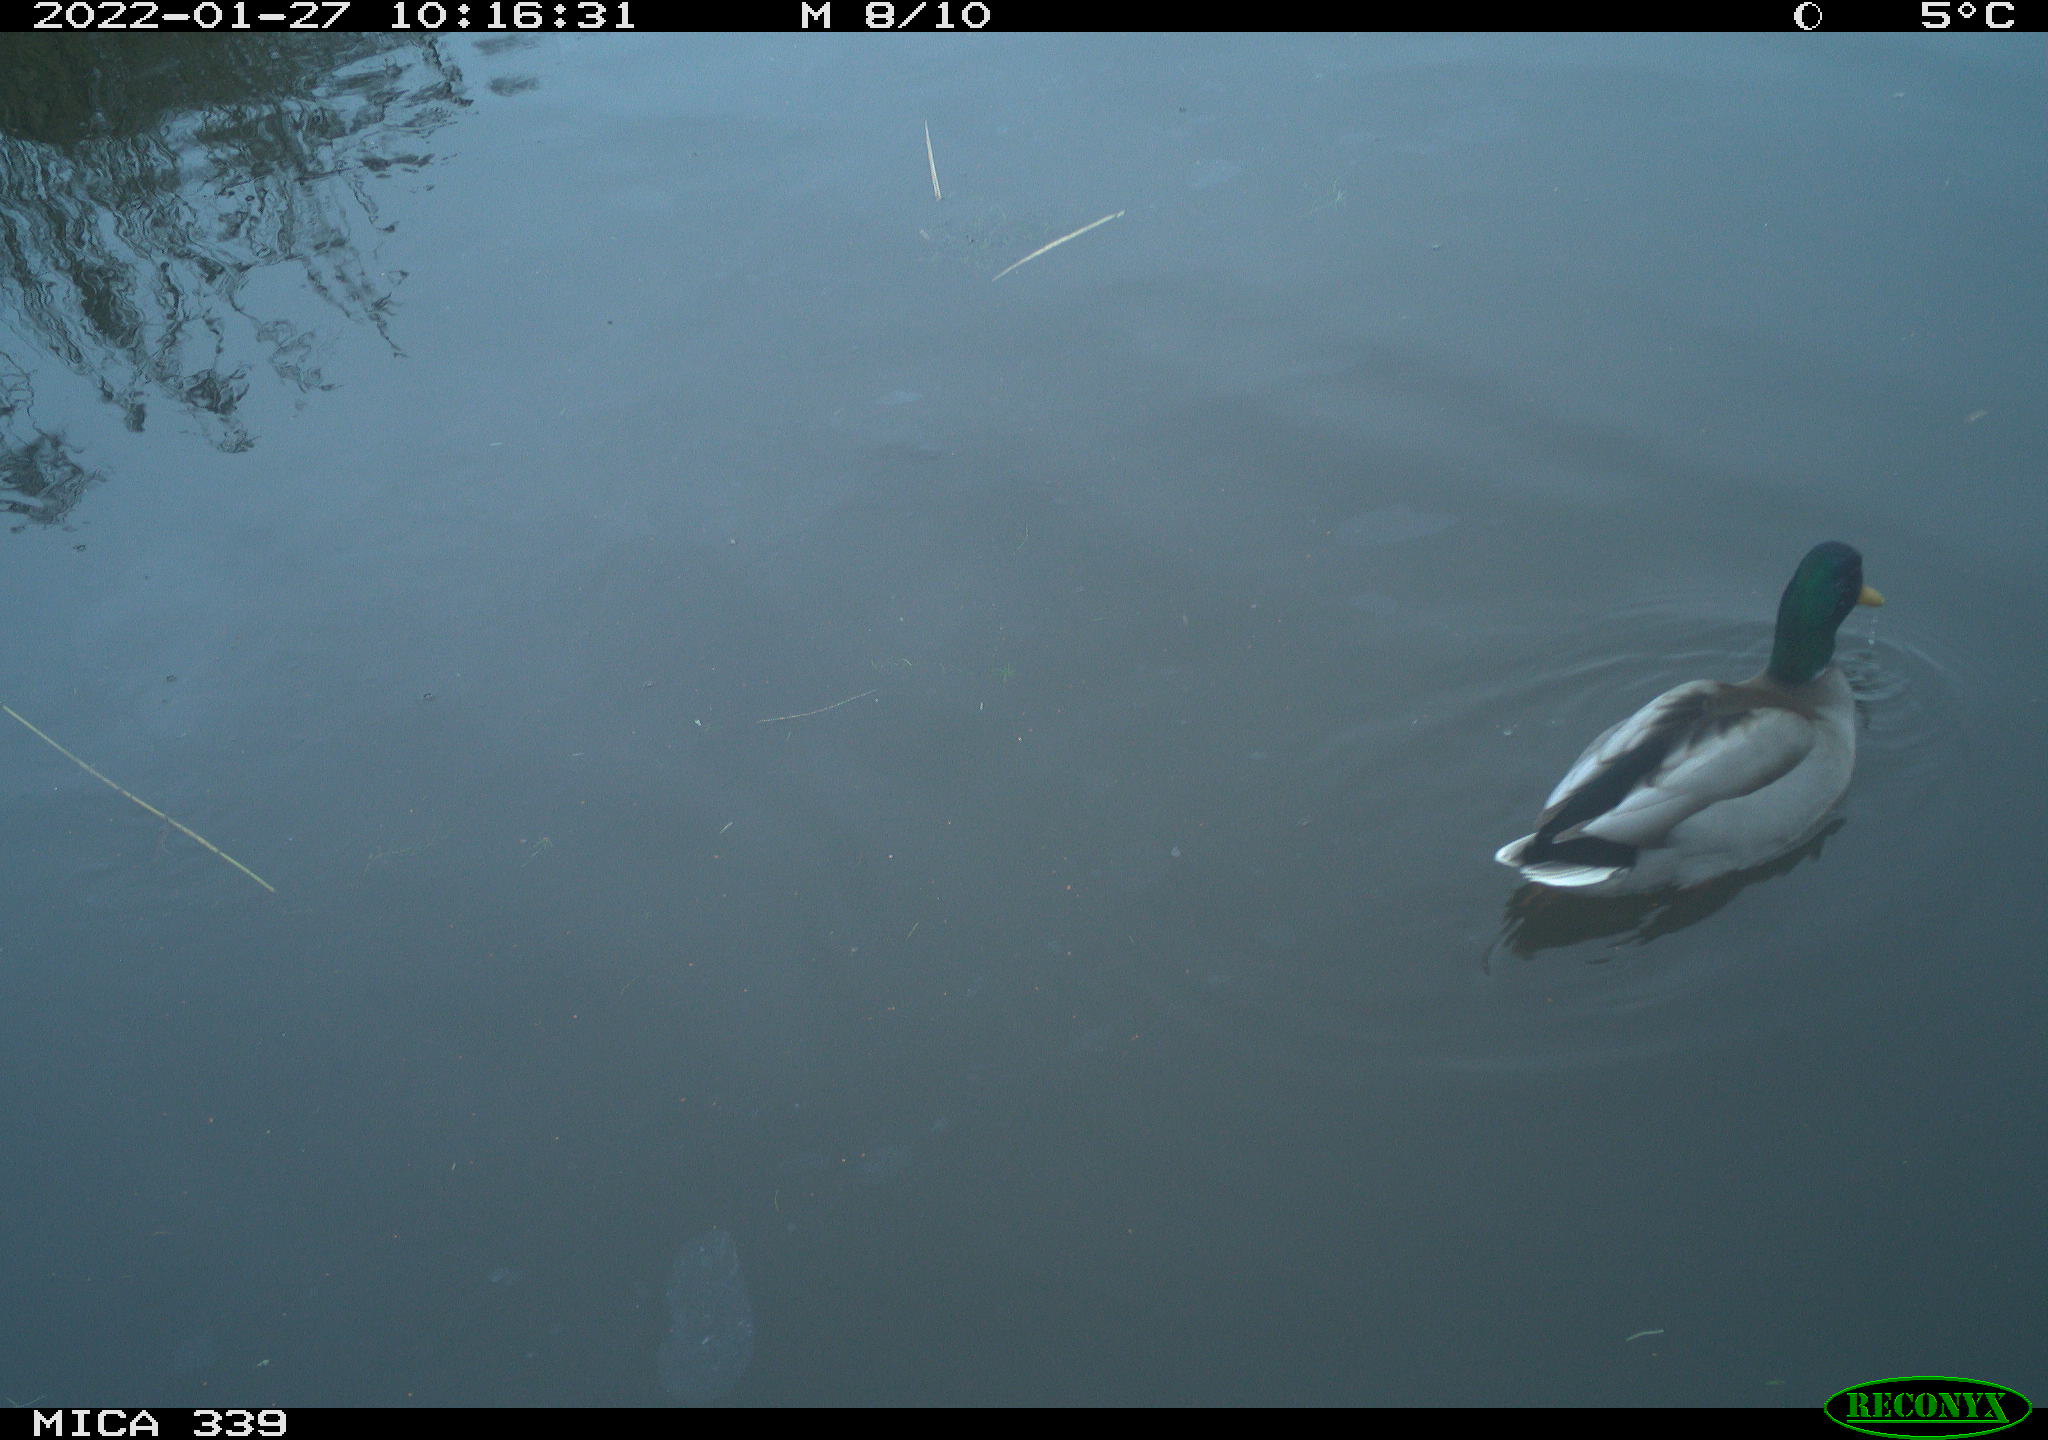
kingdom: Animalia
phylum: Chordata
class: Aves
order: Anseriformes
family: Anatidae
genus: Anas
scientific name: Anas platyrhynchos
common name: Mallard
